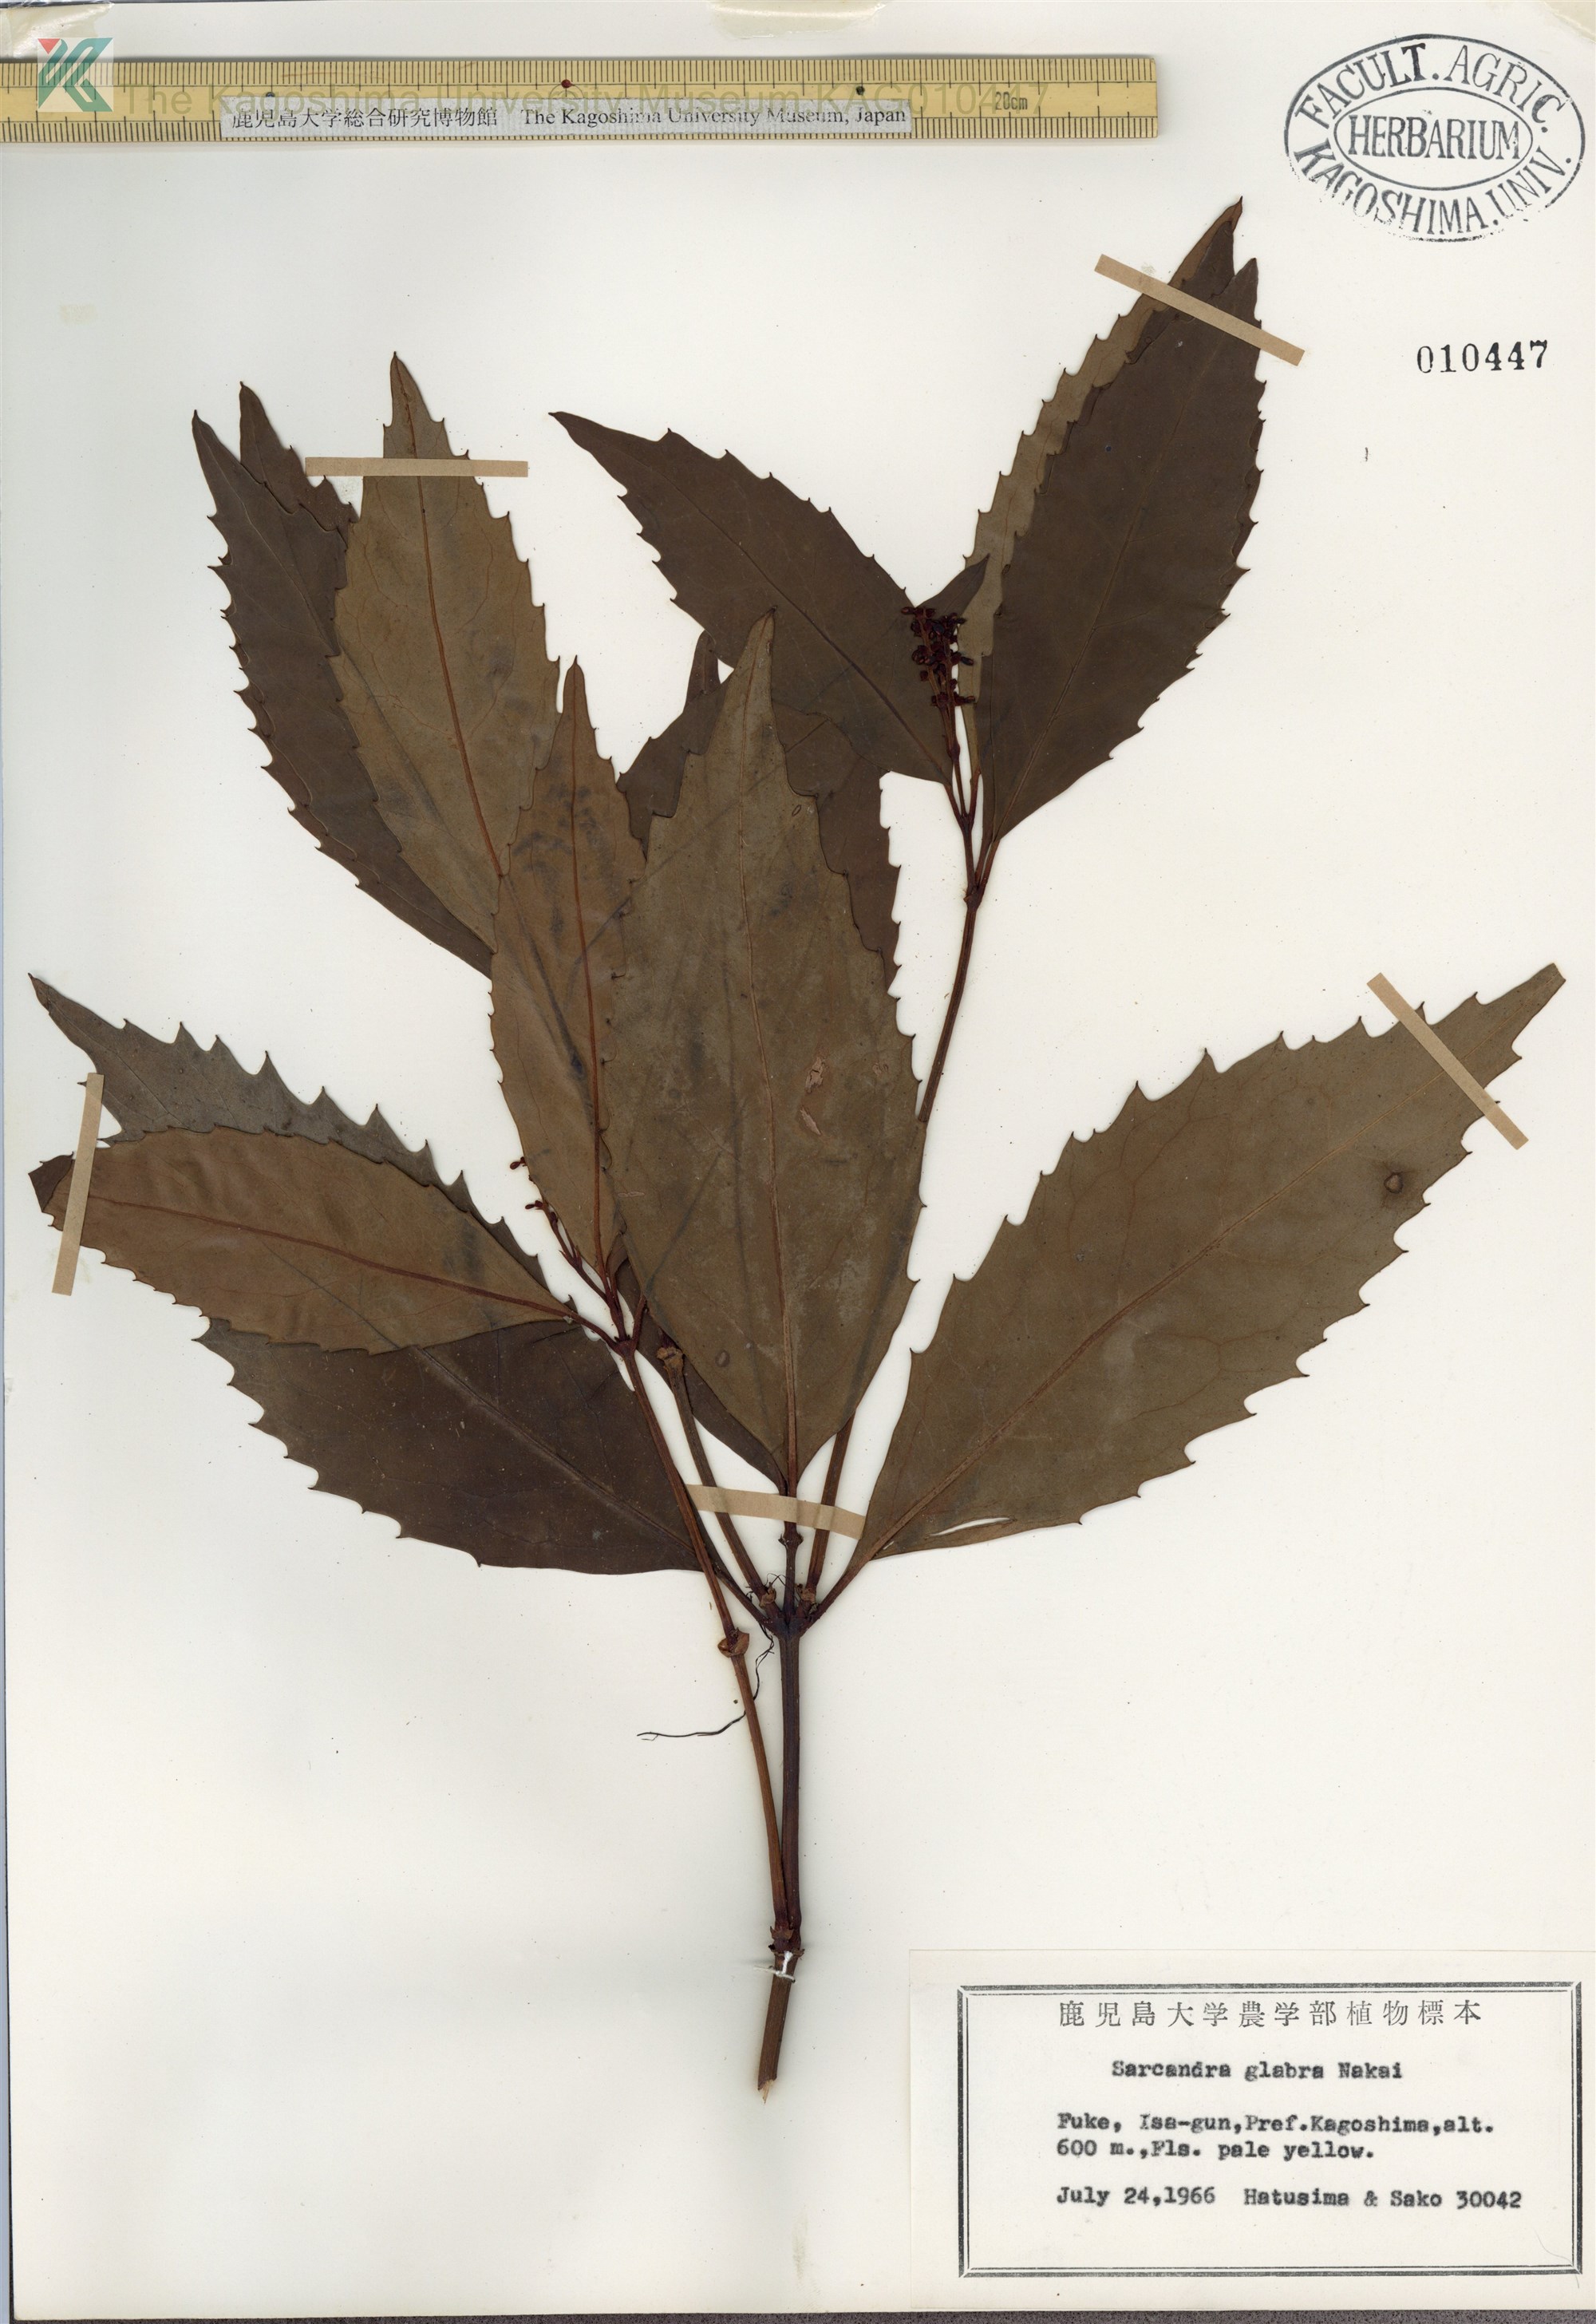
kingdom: Plantae
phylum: Tracheophyta
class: Magnoliopsida
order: Chloranthales
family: Chloranthaceae
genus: Sarcandra
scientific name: Sarcandra glabra
